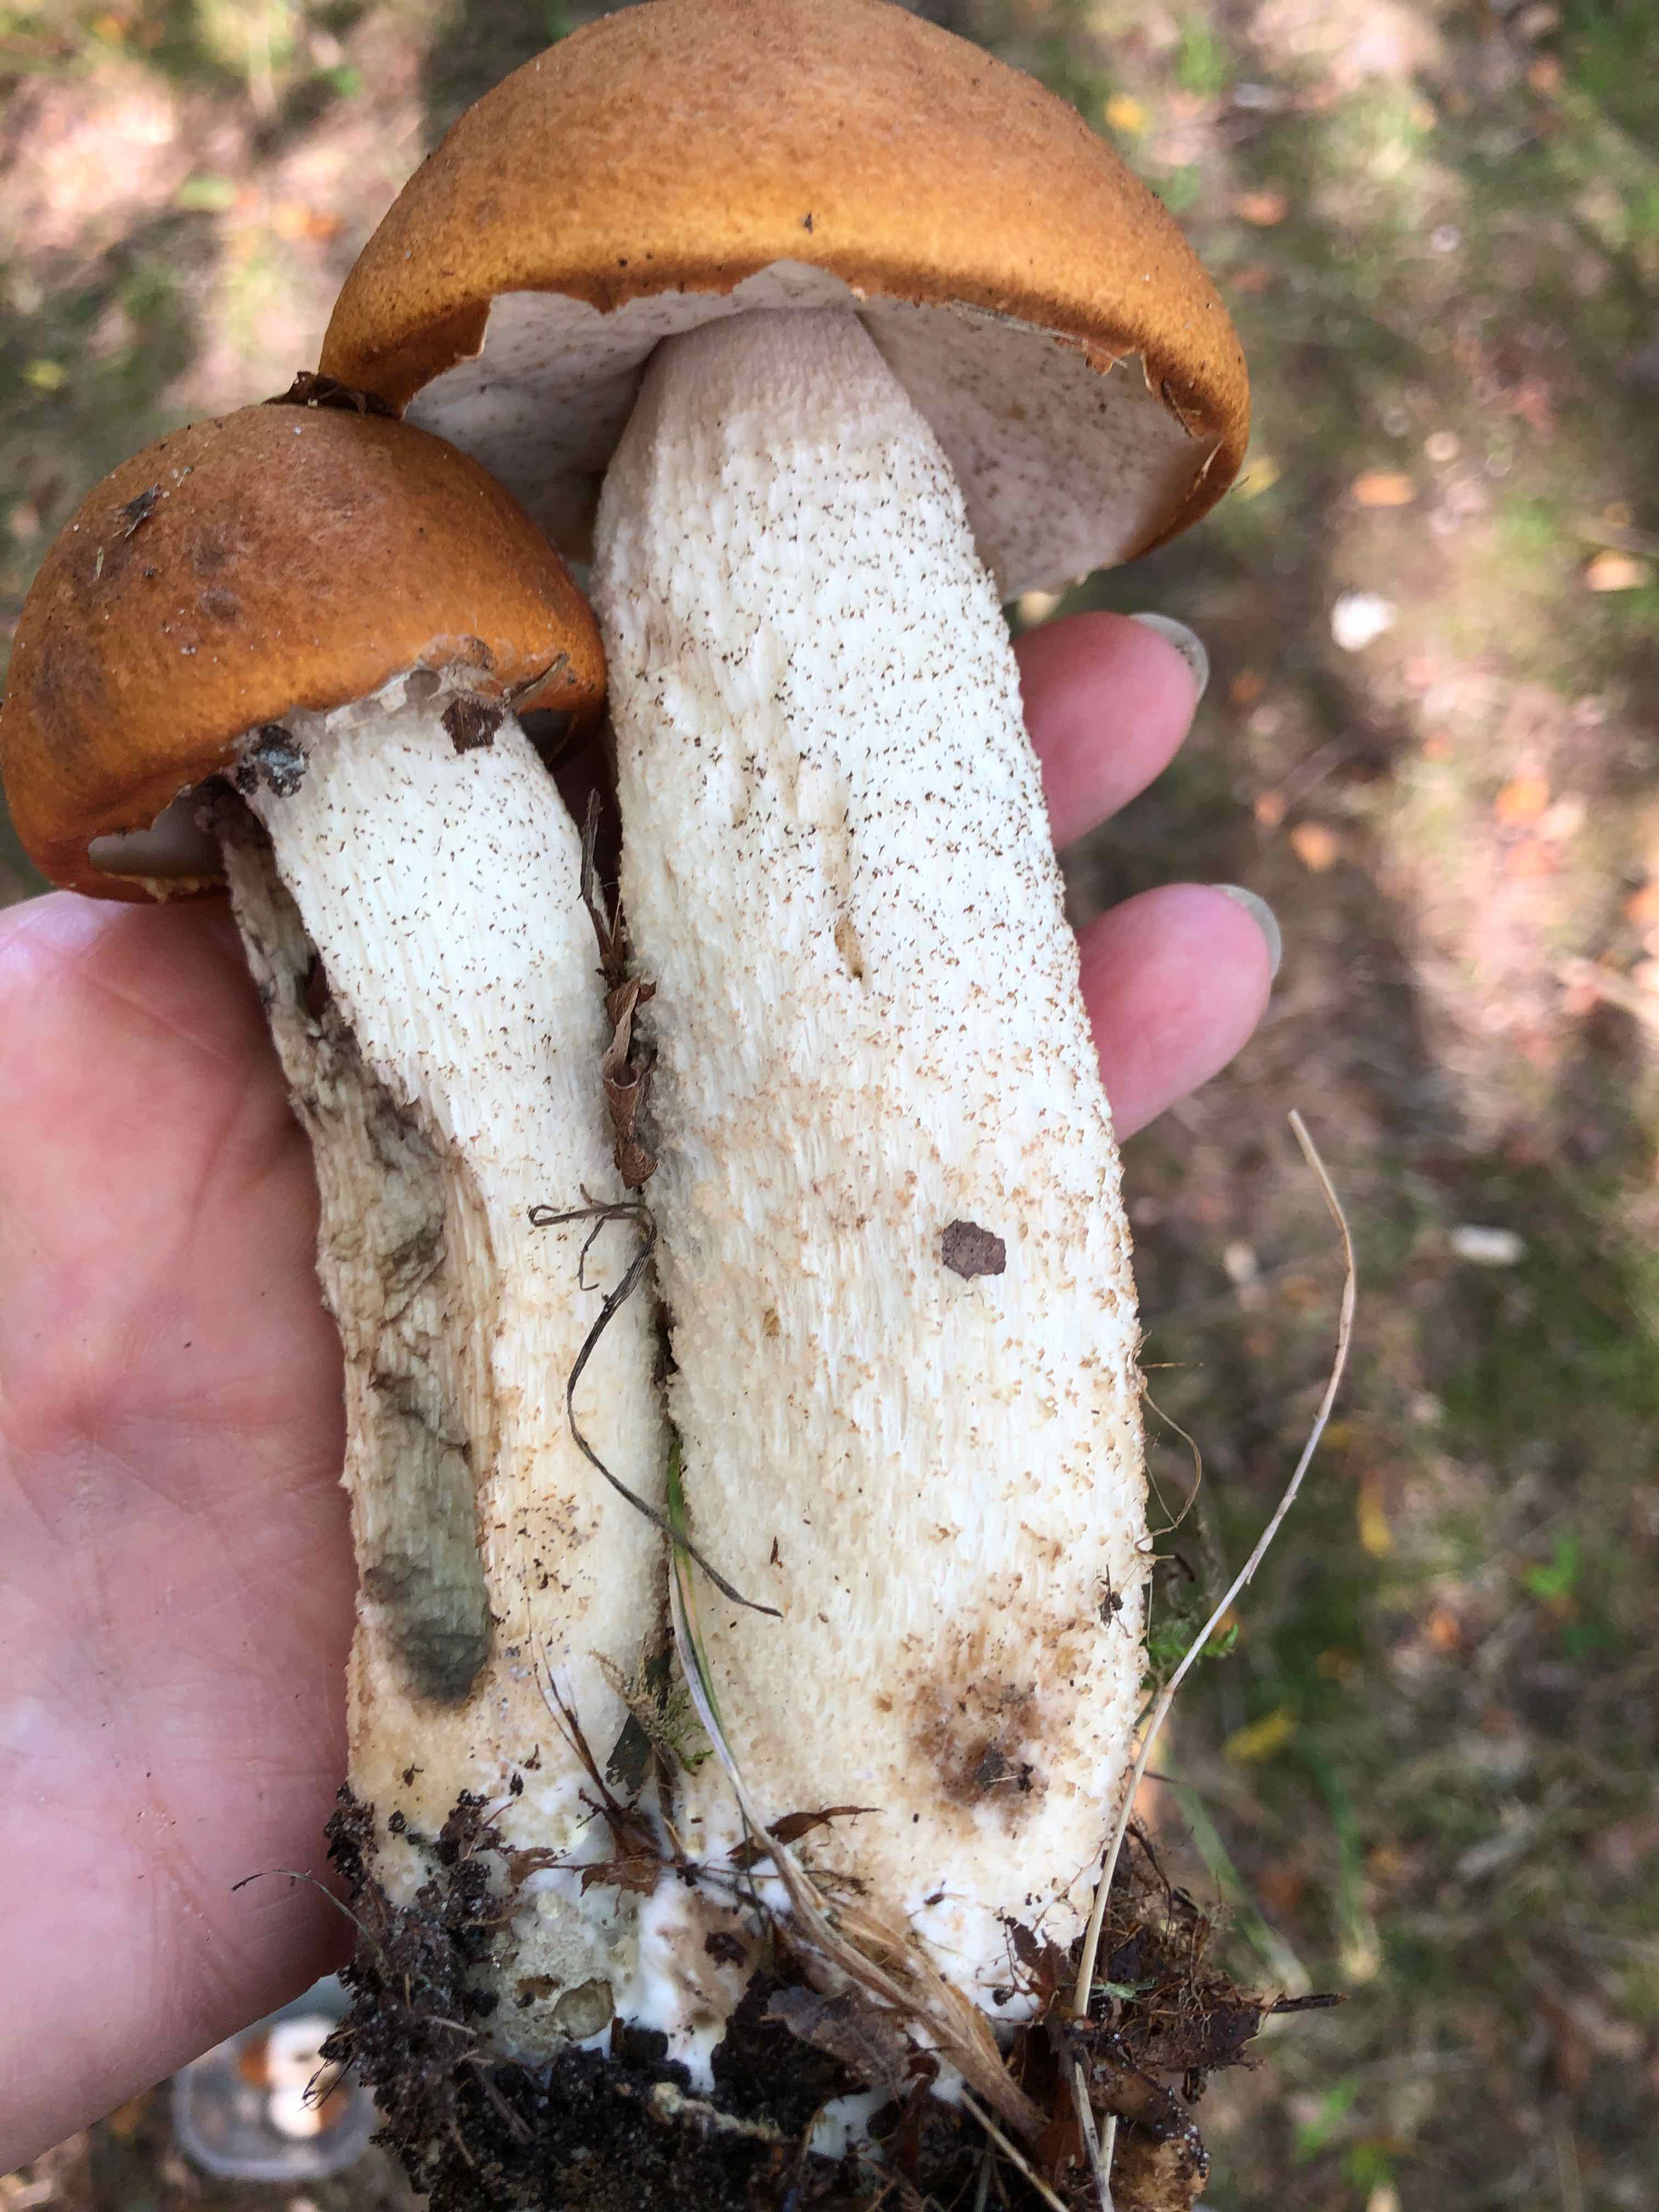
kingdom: Fungi
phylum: Basidiomycota
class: Agaricomycetes
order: Boletales
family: Boletaceae
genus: Leccinum
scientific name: Leccinum albostipitatum
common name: aspe-skælrørhat
